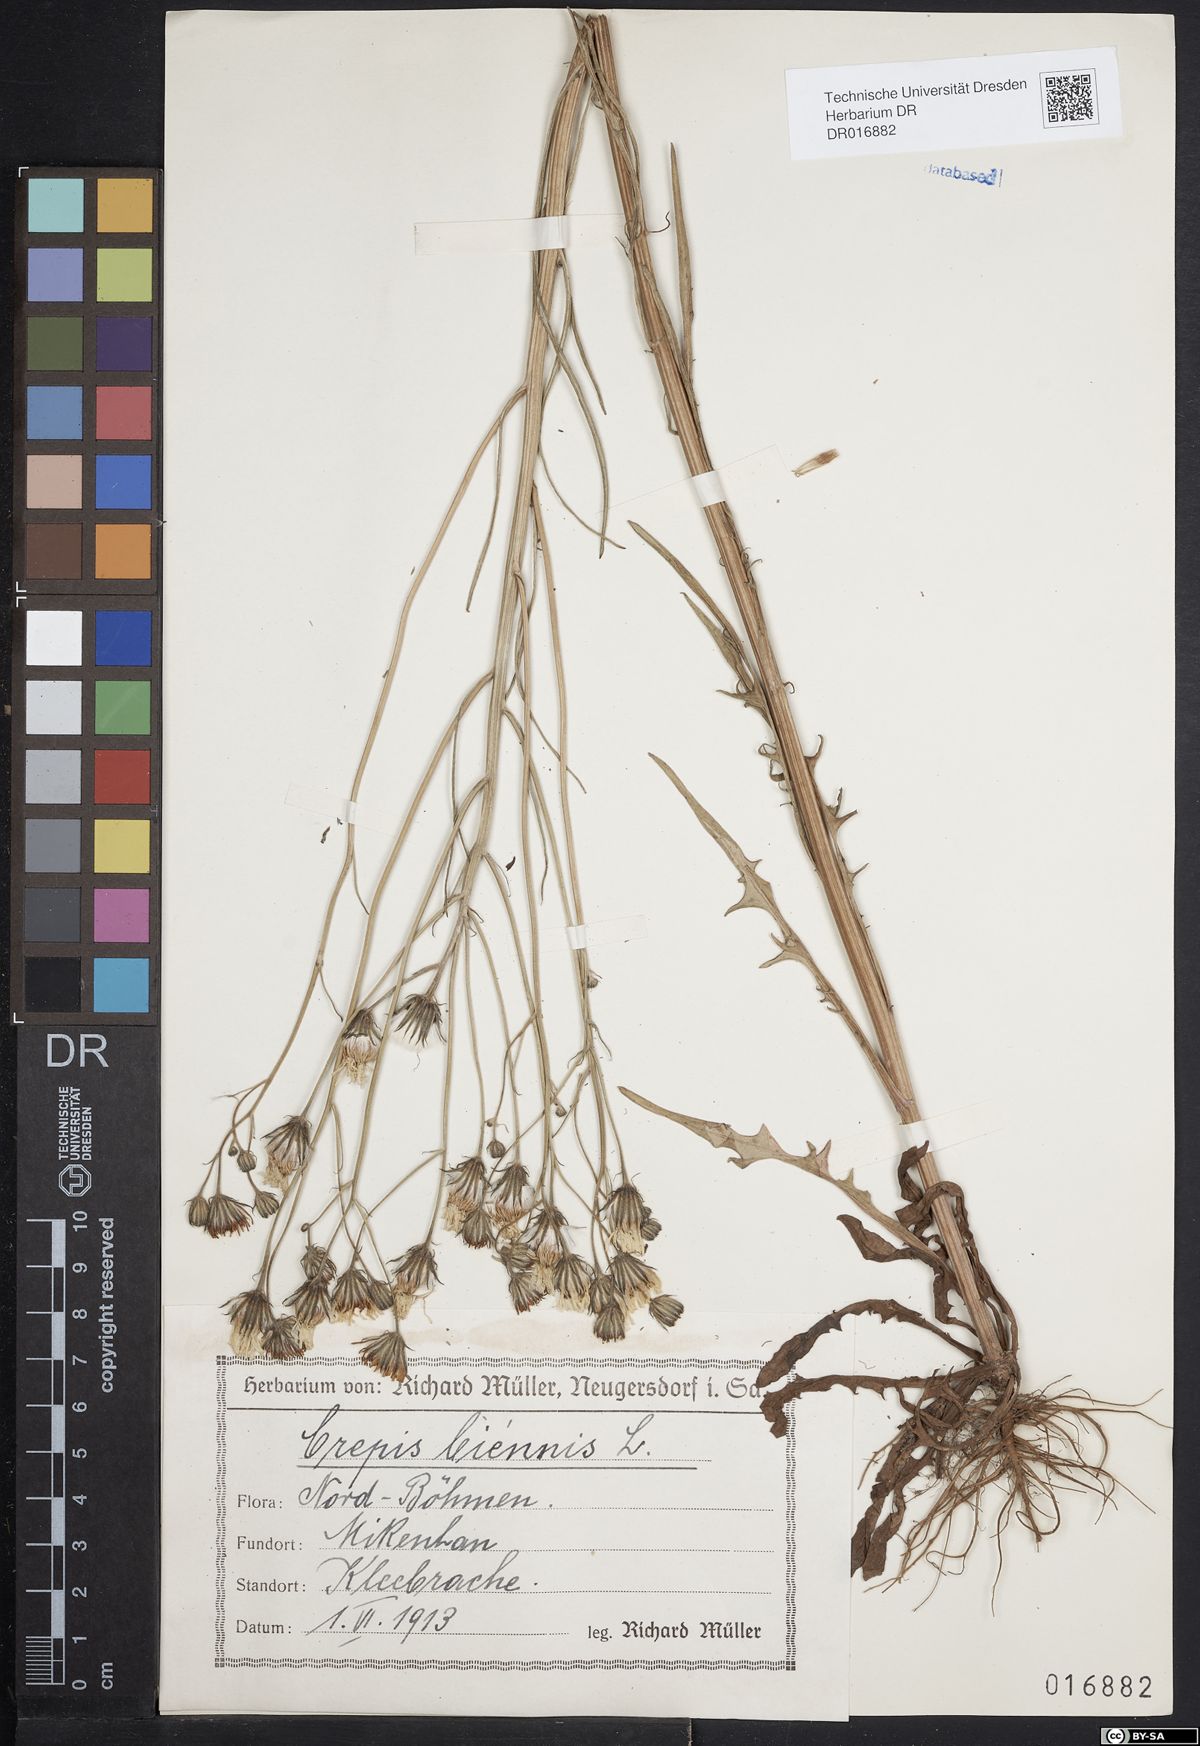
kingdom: Plantae
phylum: Tracheophyta
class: Magnoliopsida
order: Asterales
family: Asteraceae
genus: Crepis
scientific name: Crepis biennis
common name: Rough hawk's-beard
